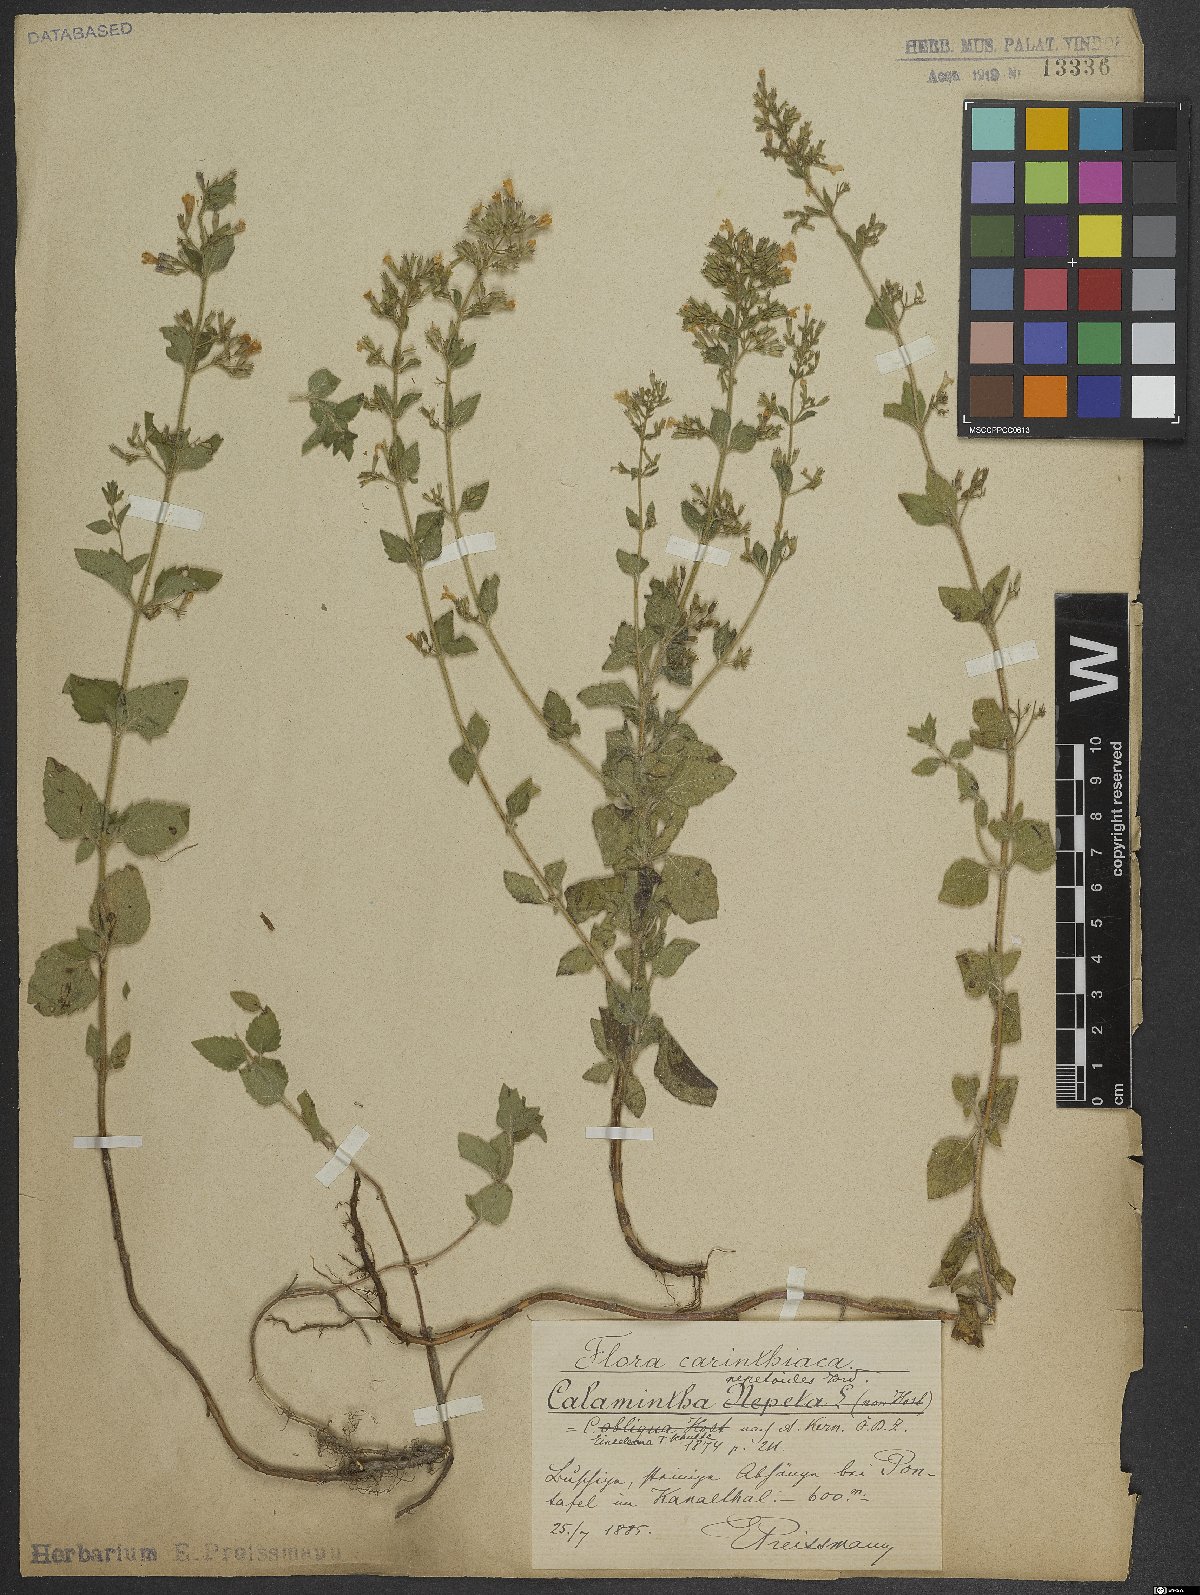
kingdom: Plantae
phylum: Tracheophyta
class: Magnoliopsida
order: Lamiales
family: Lamiaceae
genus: Clinopodium
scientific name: Clinopodium nepeta
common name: Lesser calamint
